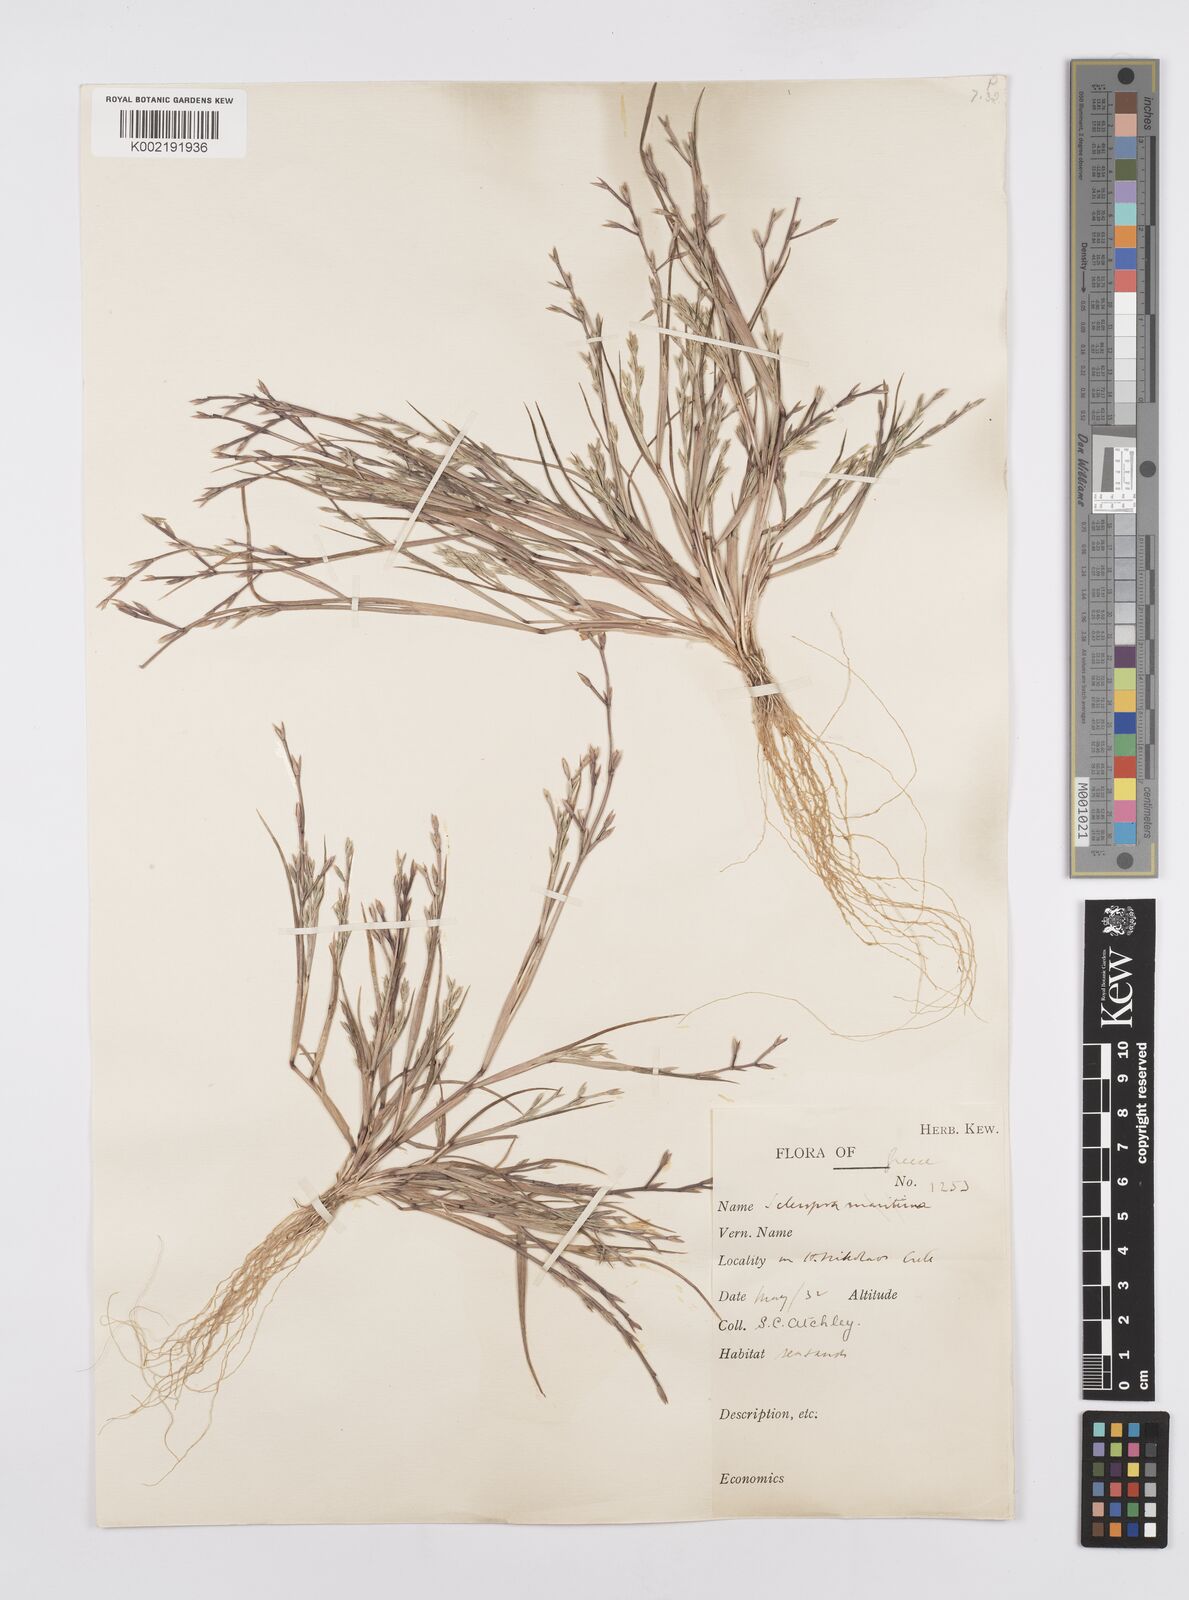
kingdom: Plantae
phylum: Tracheophyta
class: Liliopsida
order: Poales
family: Poaceae
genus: Cutandia
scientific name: Cutandia maritima
